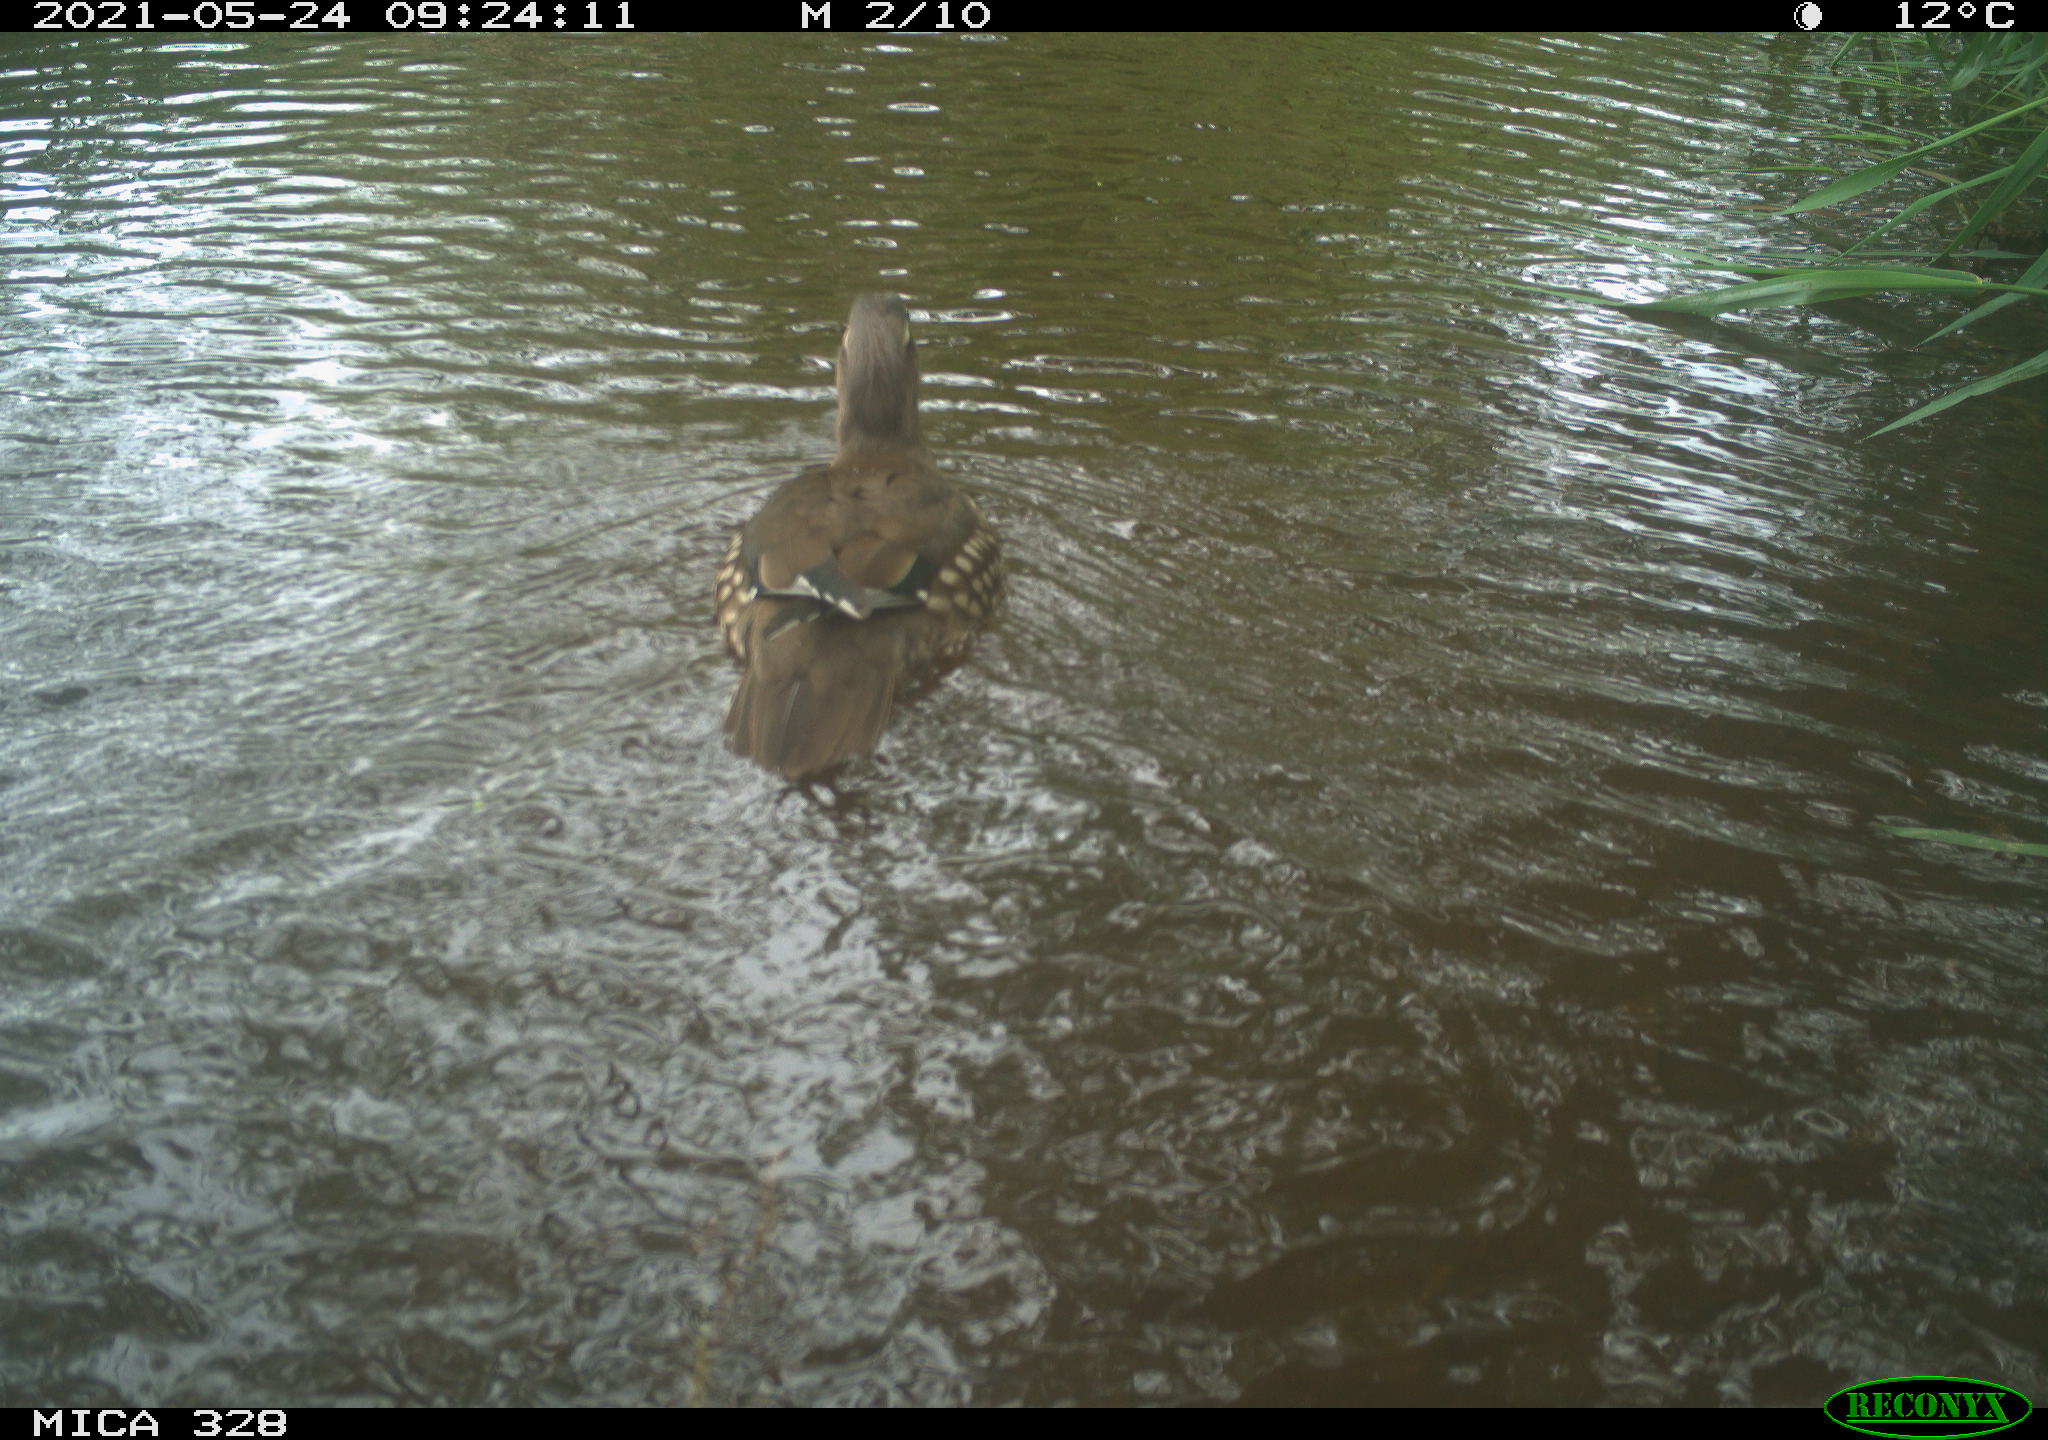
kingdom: Animalia
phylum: Chordata
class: Aves
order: Anseriformes
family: Anatidae
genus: Aix
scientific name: Aix galericulata
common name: Mandarin duck
